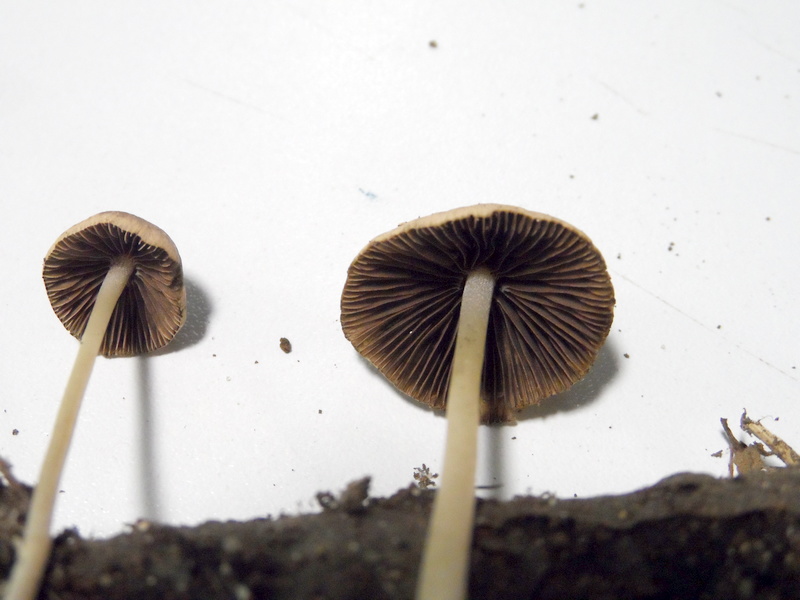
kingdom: Fungi
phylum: Basidiomycota
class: Agaricomycetes
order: Agaricales
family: Psathyrellaceae
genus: Psathyrella
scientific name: Psathyrella corrugis
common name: Red edge brittlestem
